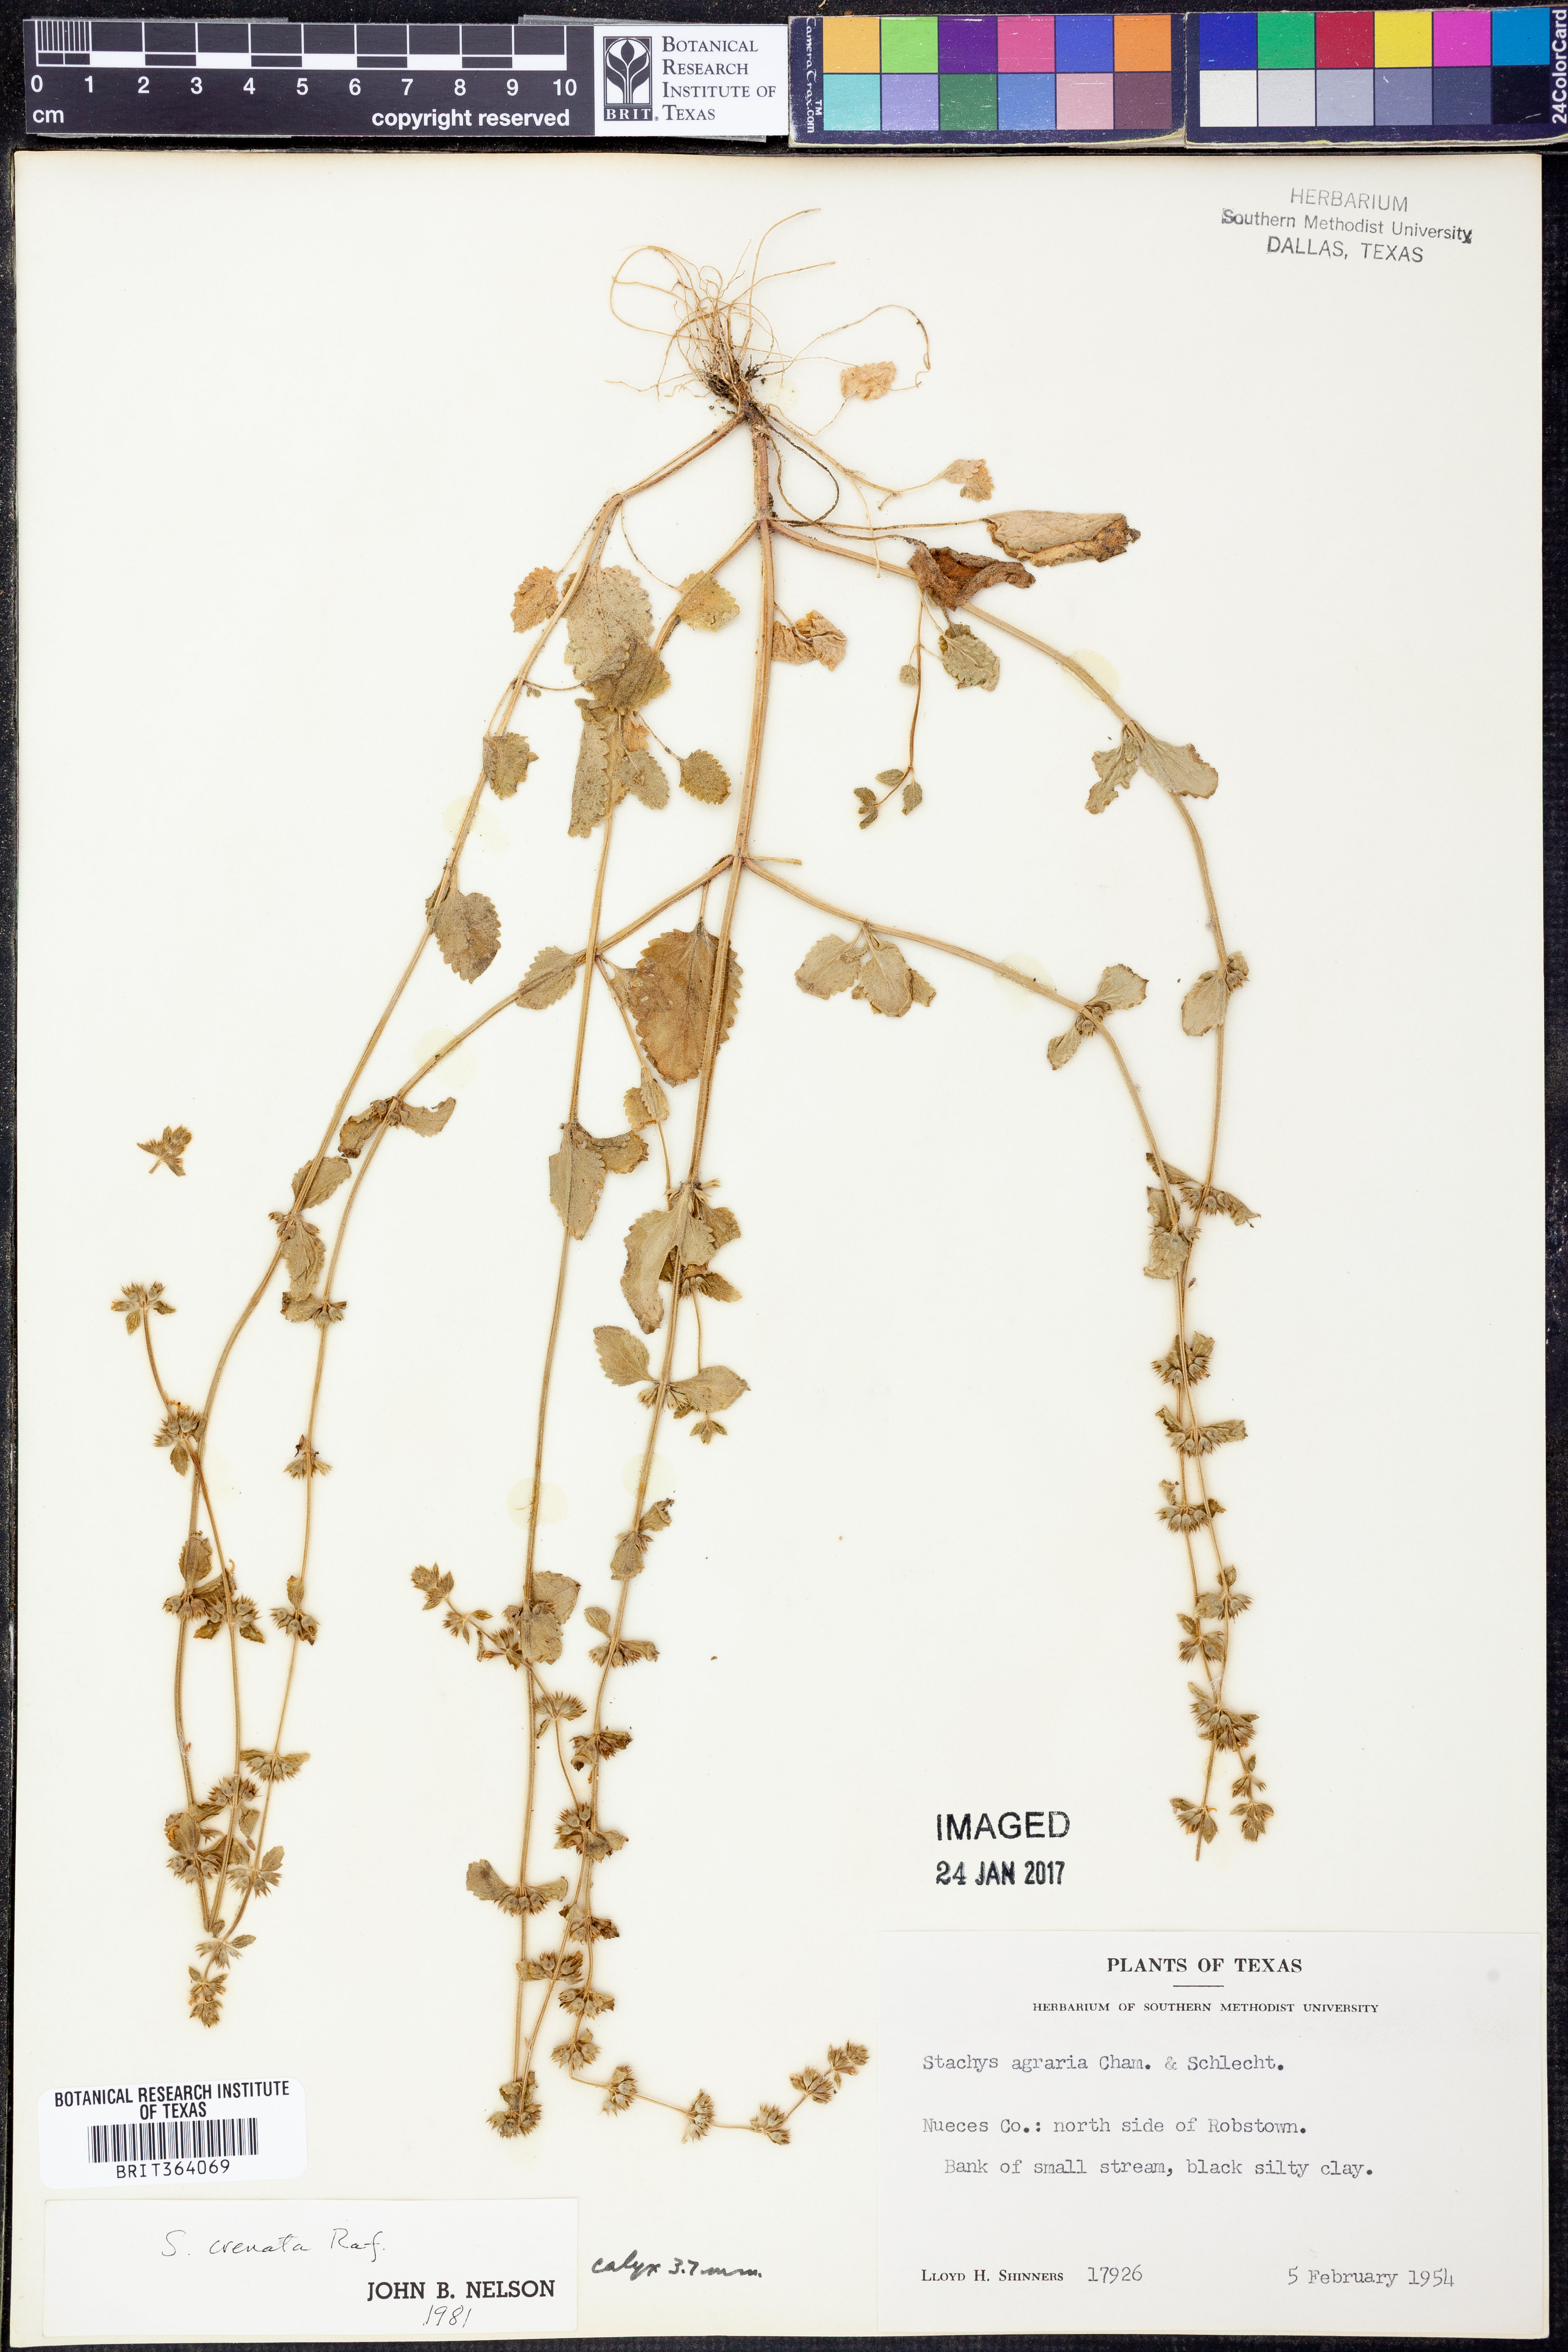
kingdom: Plantae
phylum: Tracheophyta
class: Magnoliopsida
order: Lamiales
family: Lamiaceae
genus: Stachys
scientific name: Stachys agraria
